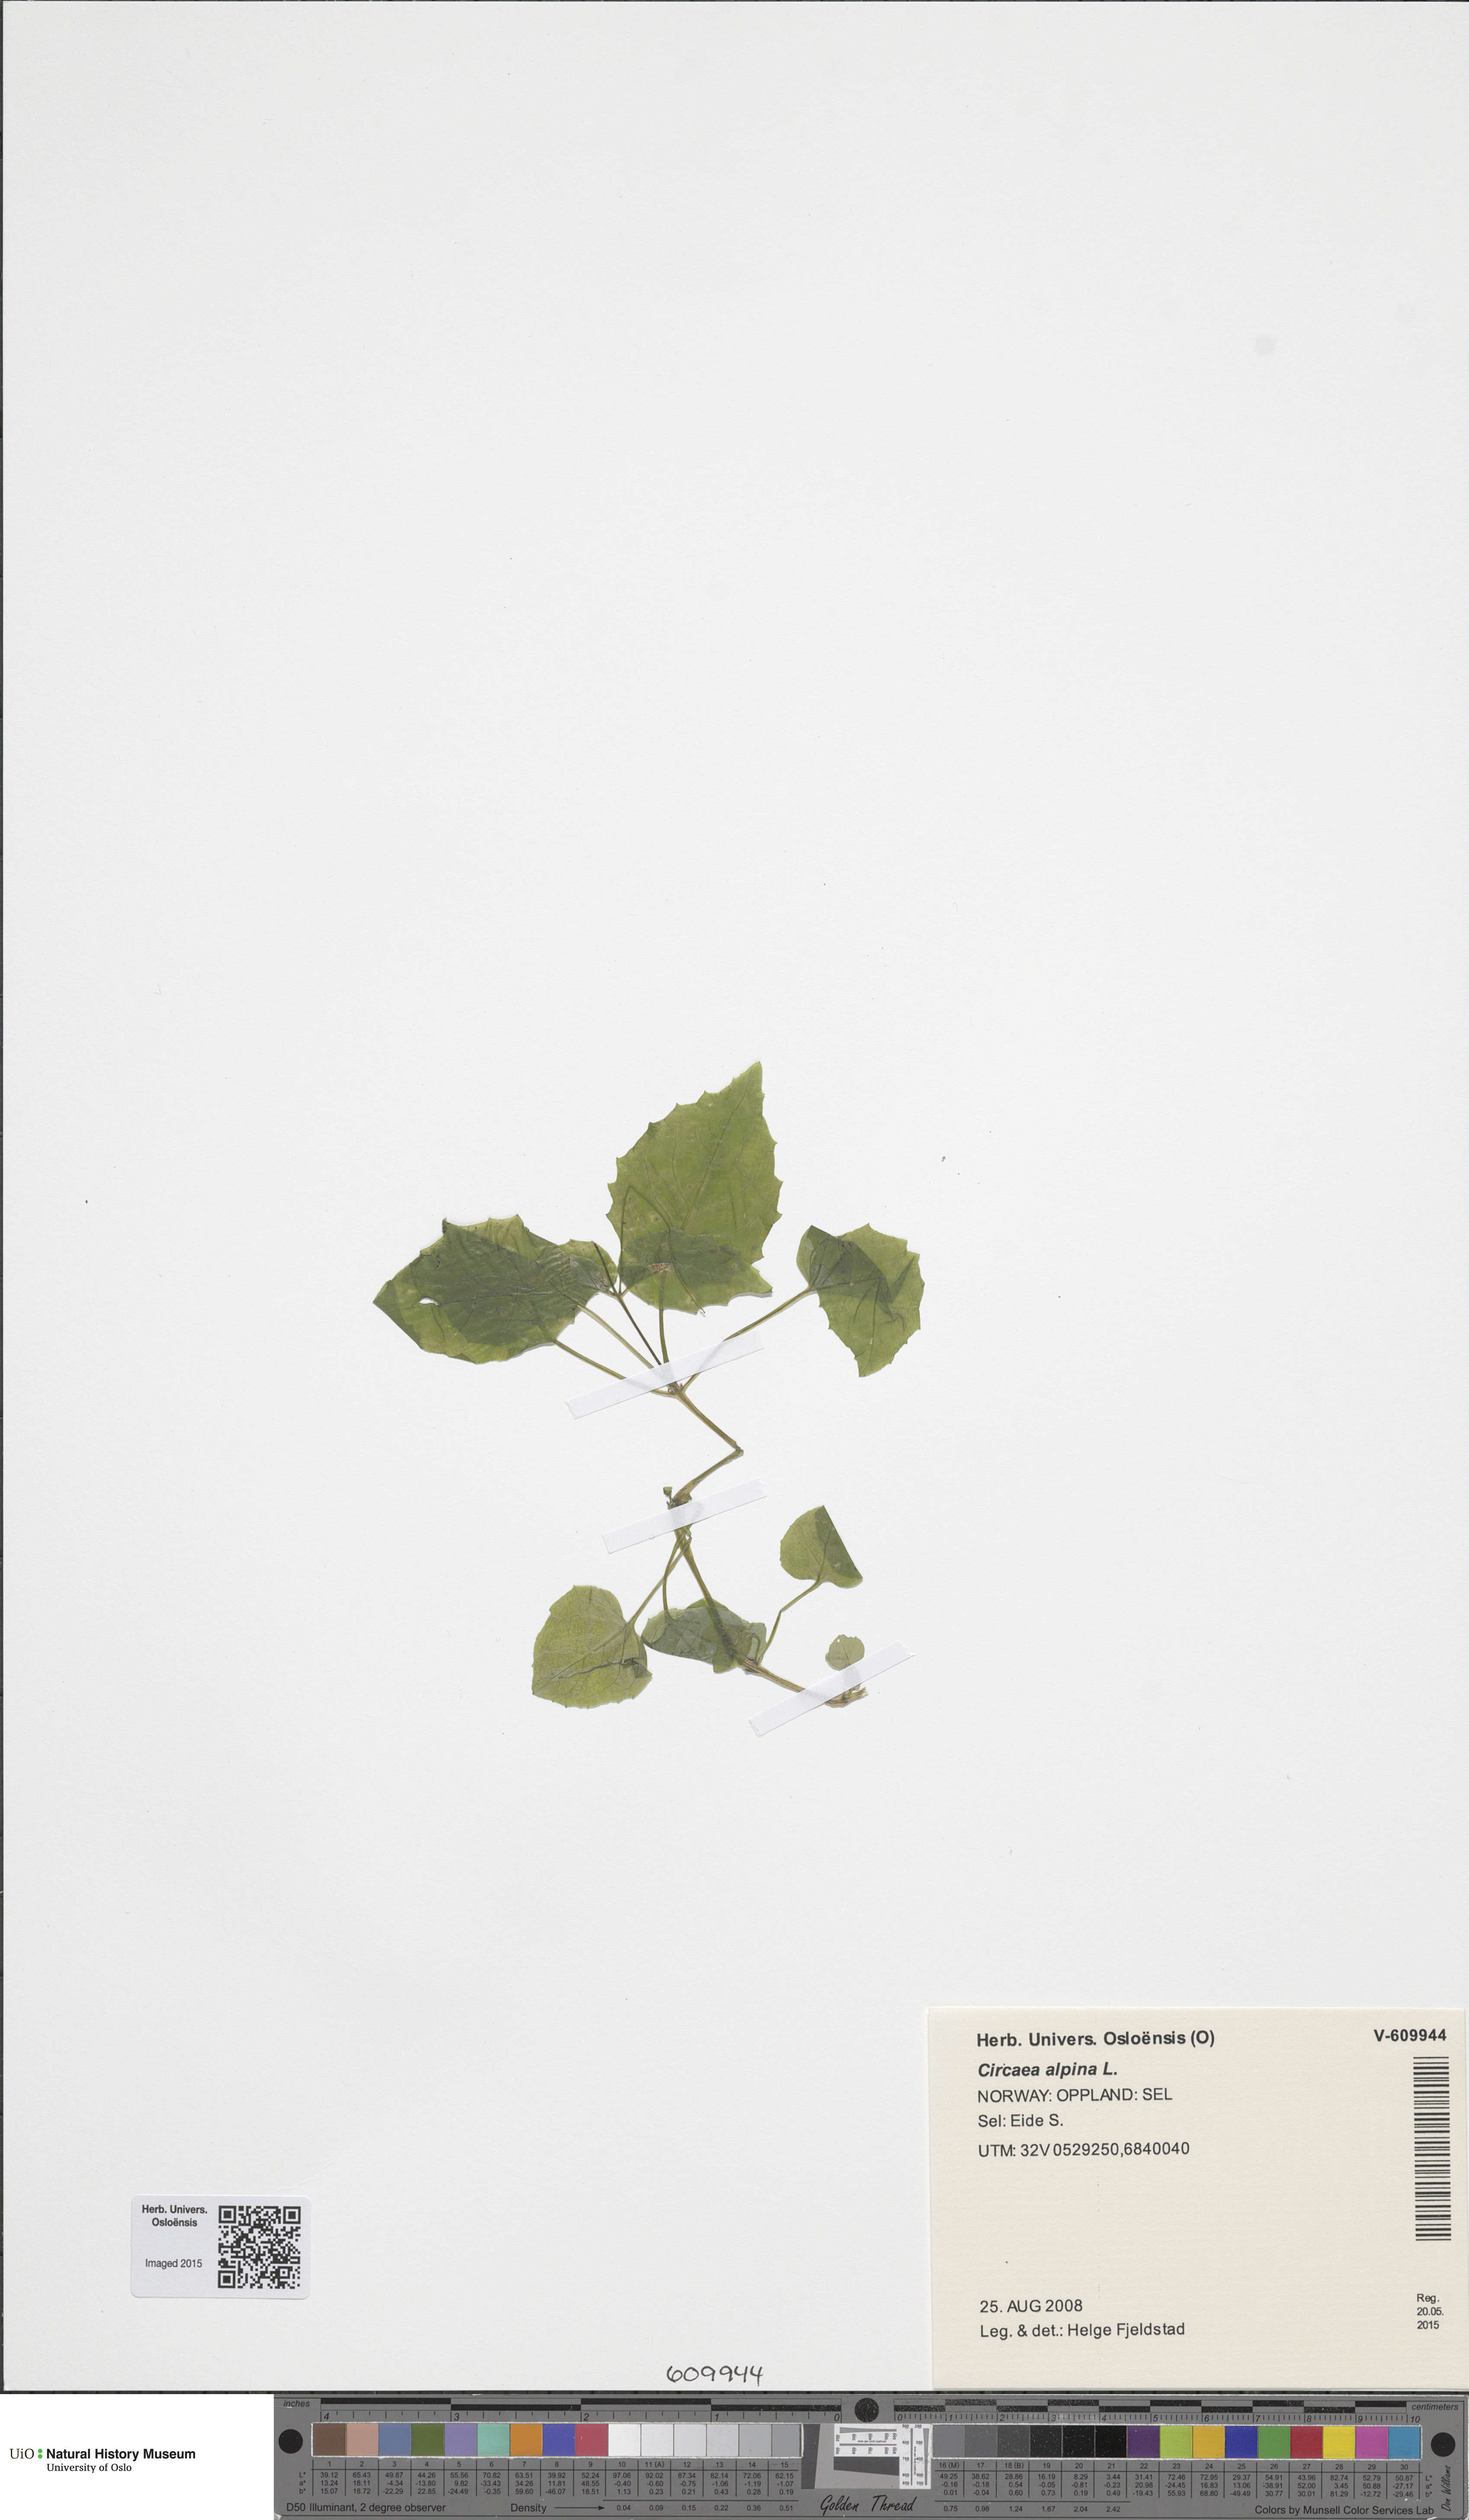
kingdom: Plantae
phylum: Tracheophyta
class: Magnoliopsida
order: Myrtales
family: Onagraceae
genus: Circaea
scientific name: Circaea alpina
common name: Alpine enchanter's-nightshade
